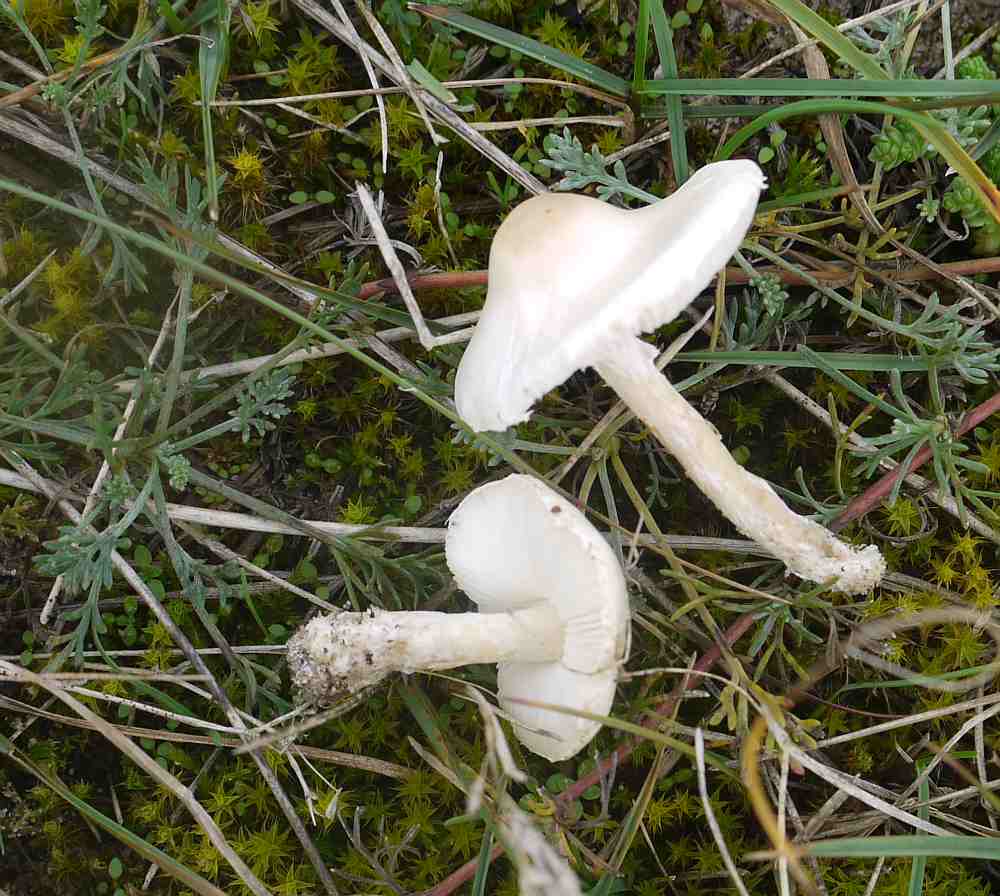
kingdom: Fungi
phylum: Basidiomycota
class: Agaricomycetes
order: Agaricales
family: Agaricaceae
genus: Lepiota
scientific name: Lepiota erminea
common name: hvid parasolhat
